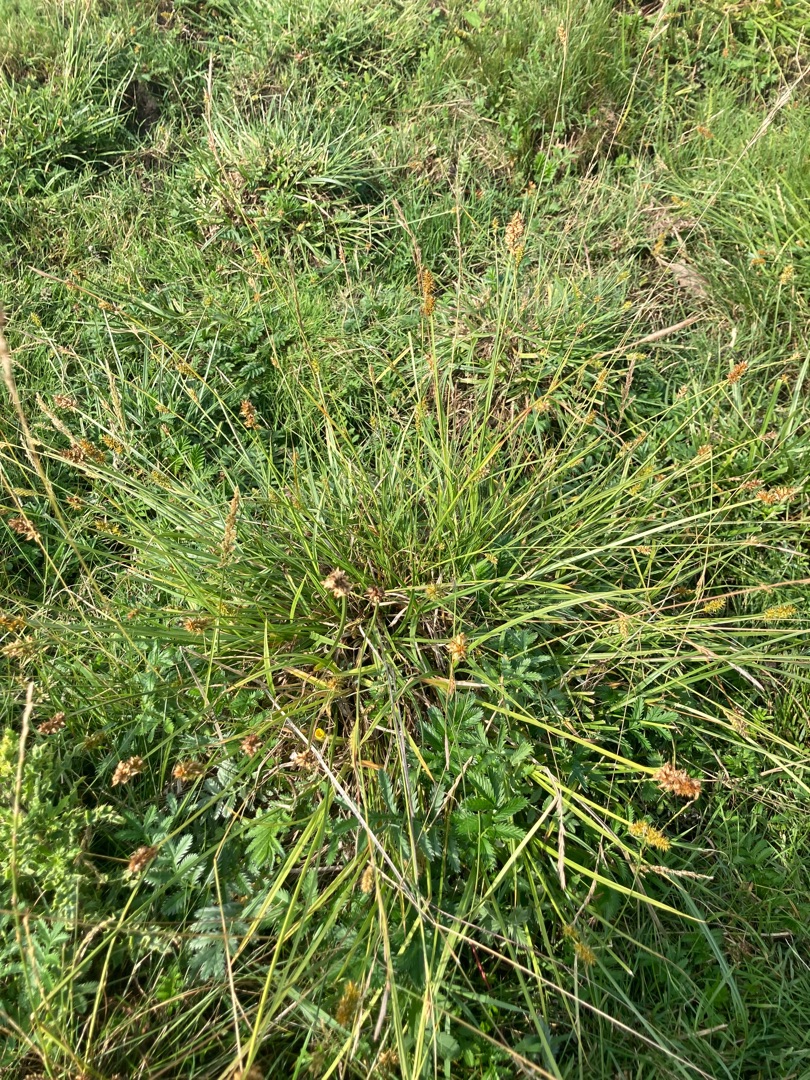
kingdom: Plantae
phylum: Tracheophyta
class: Liliopsida
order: Poales
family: Cyperaceae
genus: Carex
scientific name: Carex otrubae
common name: Sylt-star
